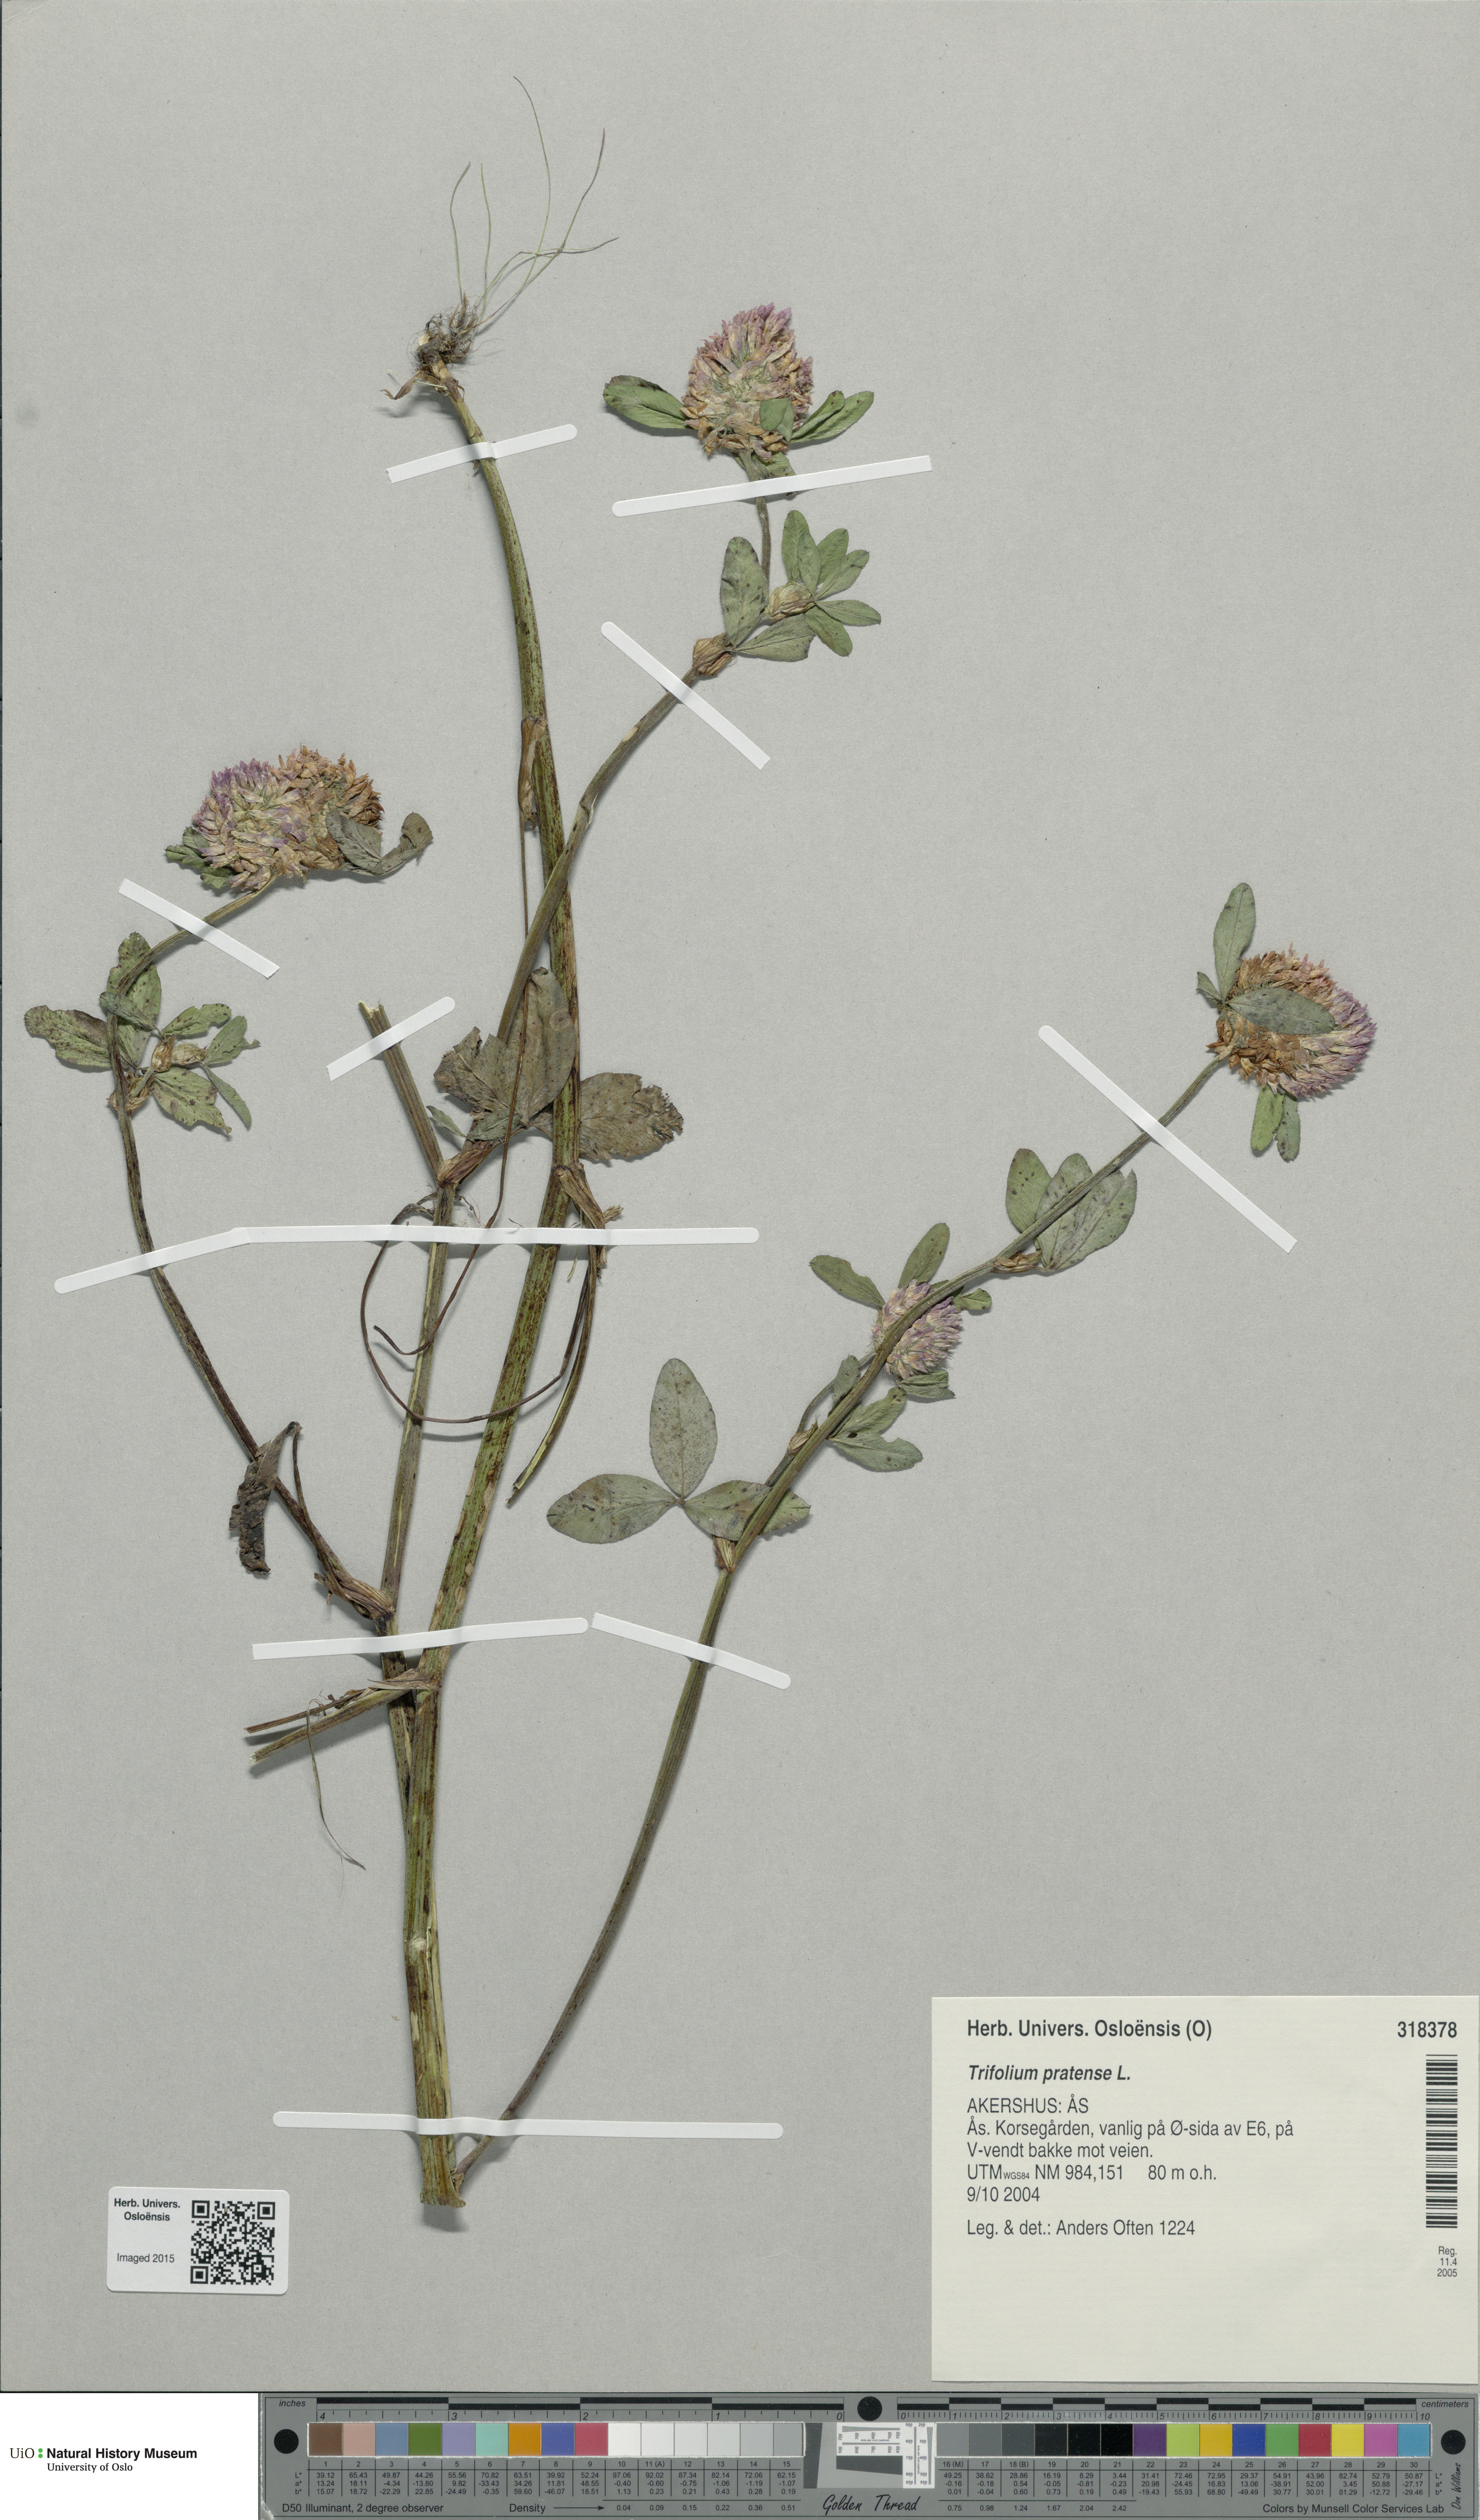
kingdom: Plantae
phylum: Tracheophyta
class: Magnoliopsida
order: Fabales
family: Fabaceae
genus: Trifolium
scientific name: Trifolium pratense
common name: Red clover
